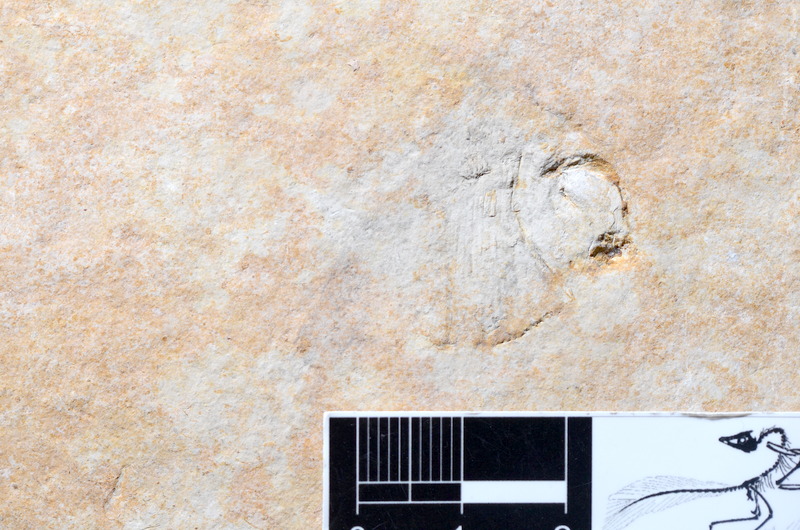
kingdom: Animalia
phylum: Chordata
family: Pycnodontidae
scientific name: Pycnodontidae
